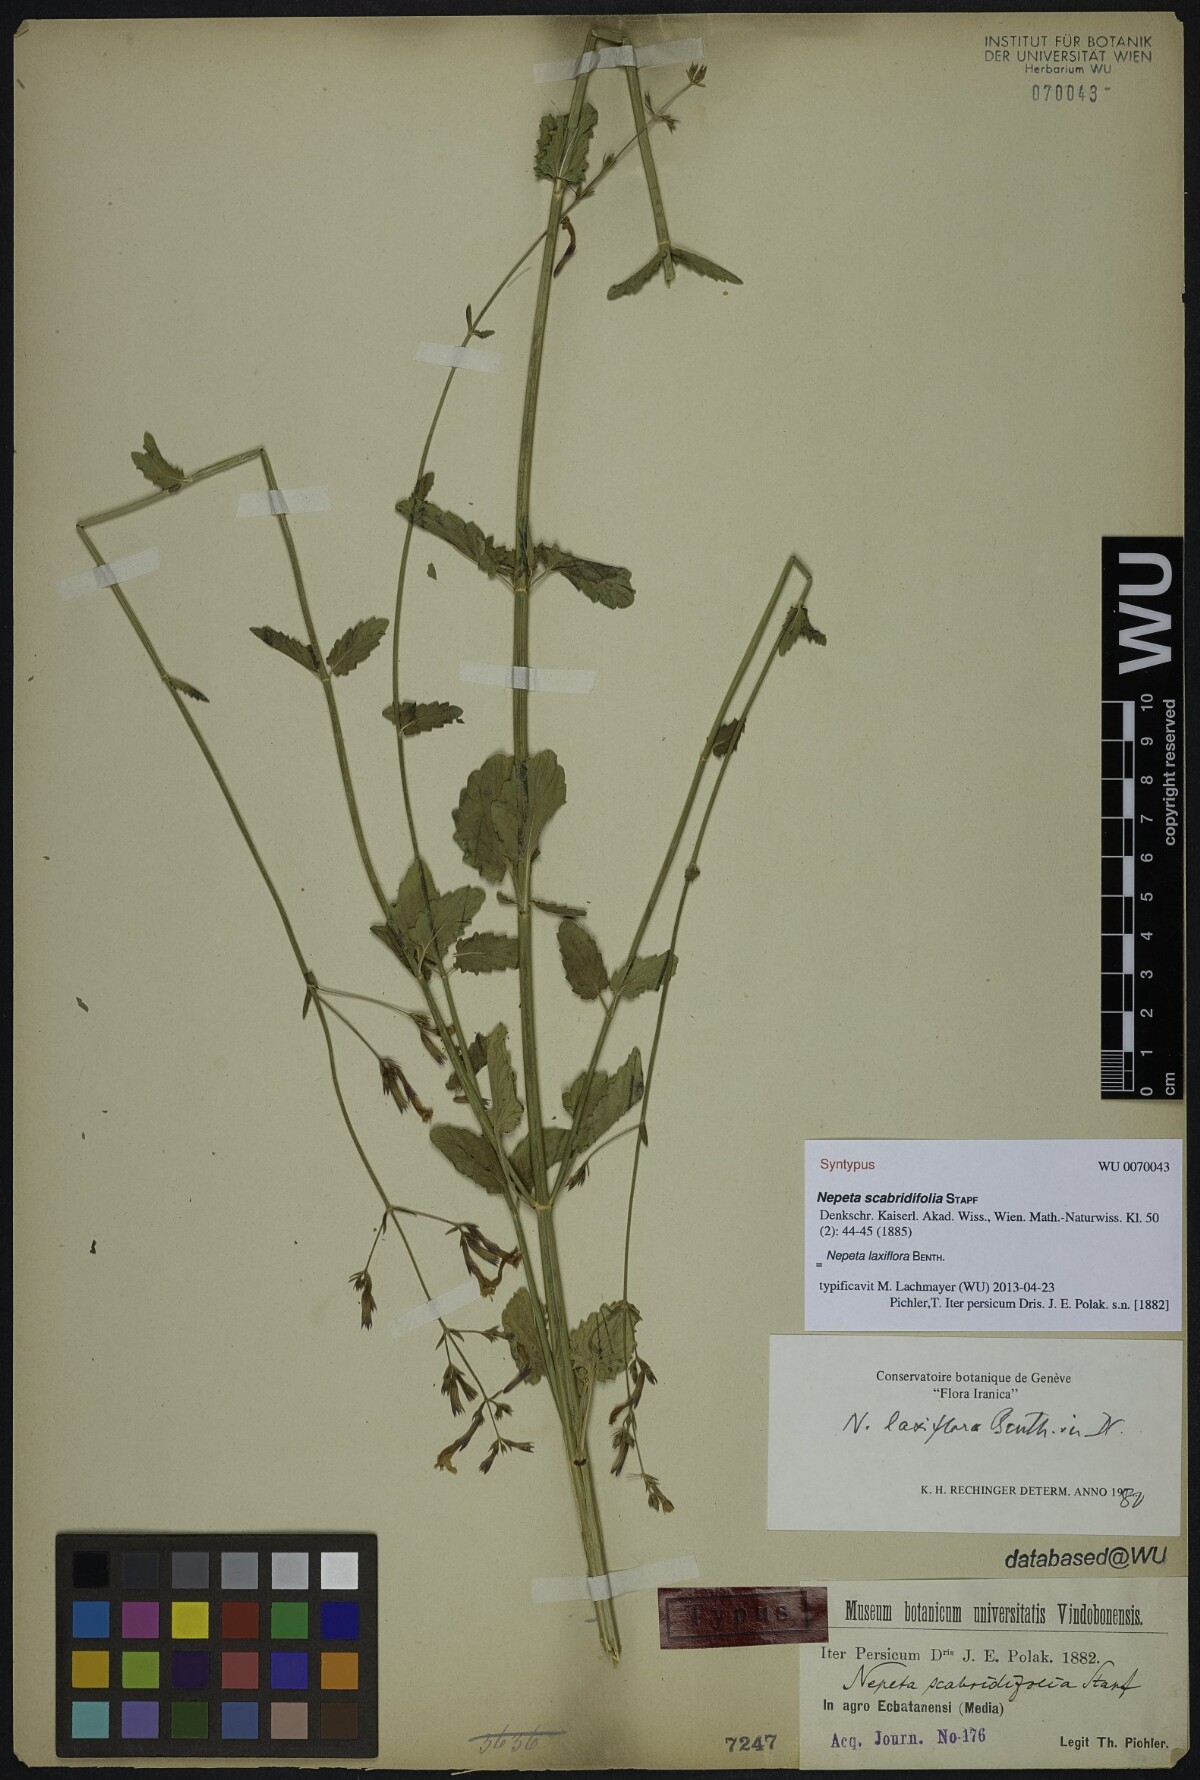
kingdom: Plantae
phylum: Tracheophyta
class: Magnoliopsida
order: Lamiales
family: Lamiaceae
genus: Nepeta
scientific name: Nepeta laxiflora
